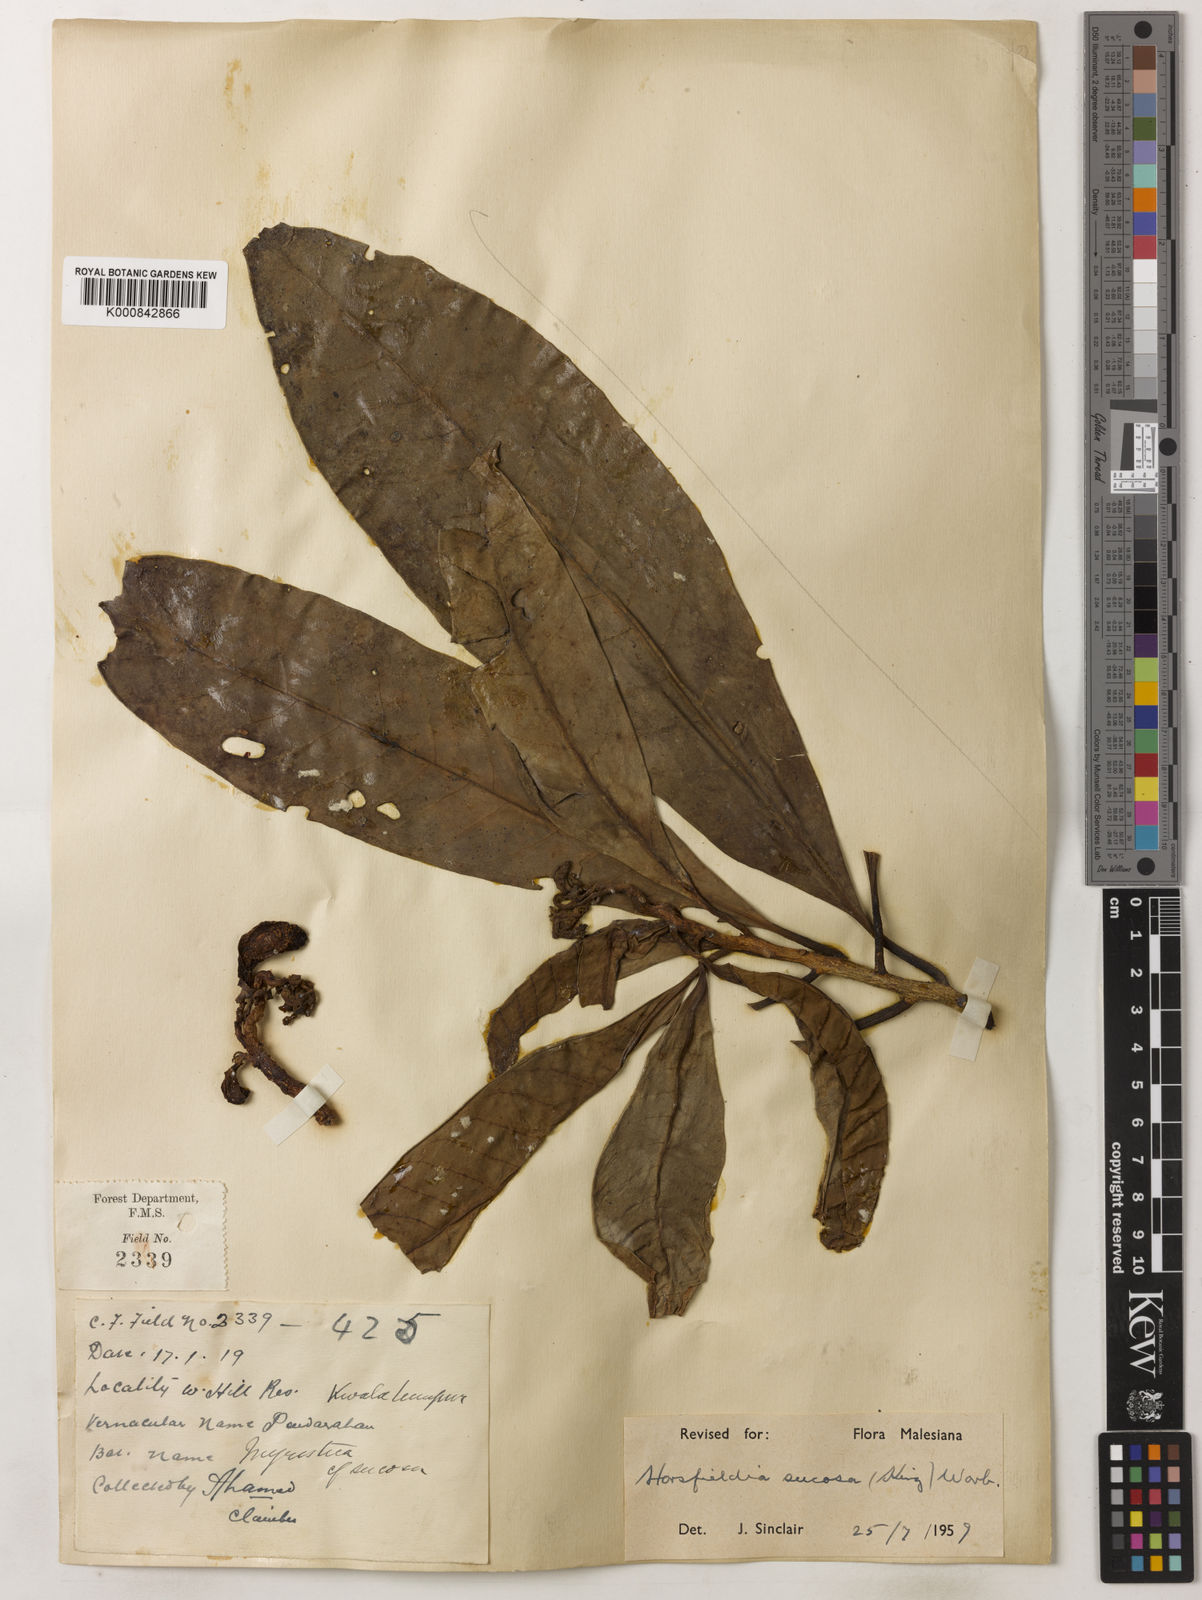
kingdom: Plantae
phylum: Tracheophyta
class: Magnoliopsida
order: Magnoliales
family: Myristicaceae
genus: Horsfieldia
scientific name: Horsfieldia sucosa
